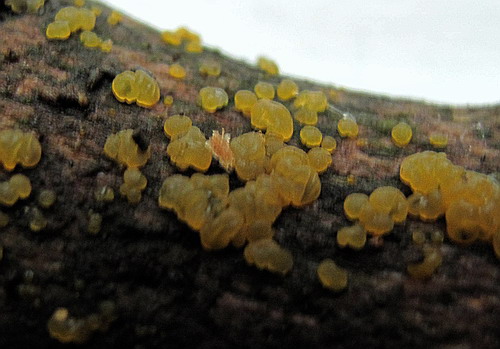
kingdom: Fungi
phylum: Basidiomycota
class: Dacrymycetes
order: Dacrymycetales
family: Dacrymycetaceae
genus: Dacrymyces
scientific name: Dacrymyces lacrymalis
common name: rynket tåresvamp
